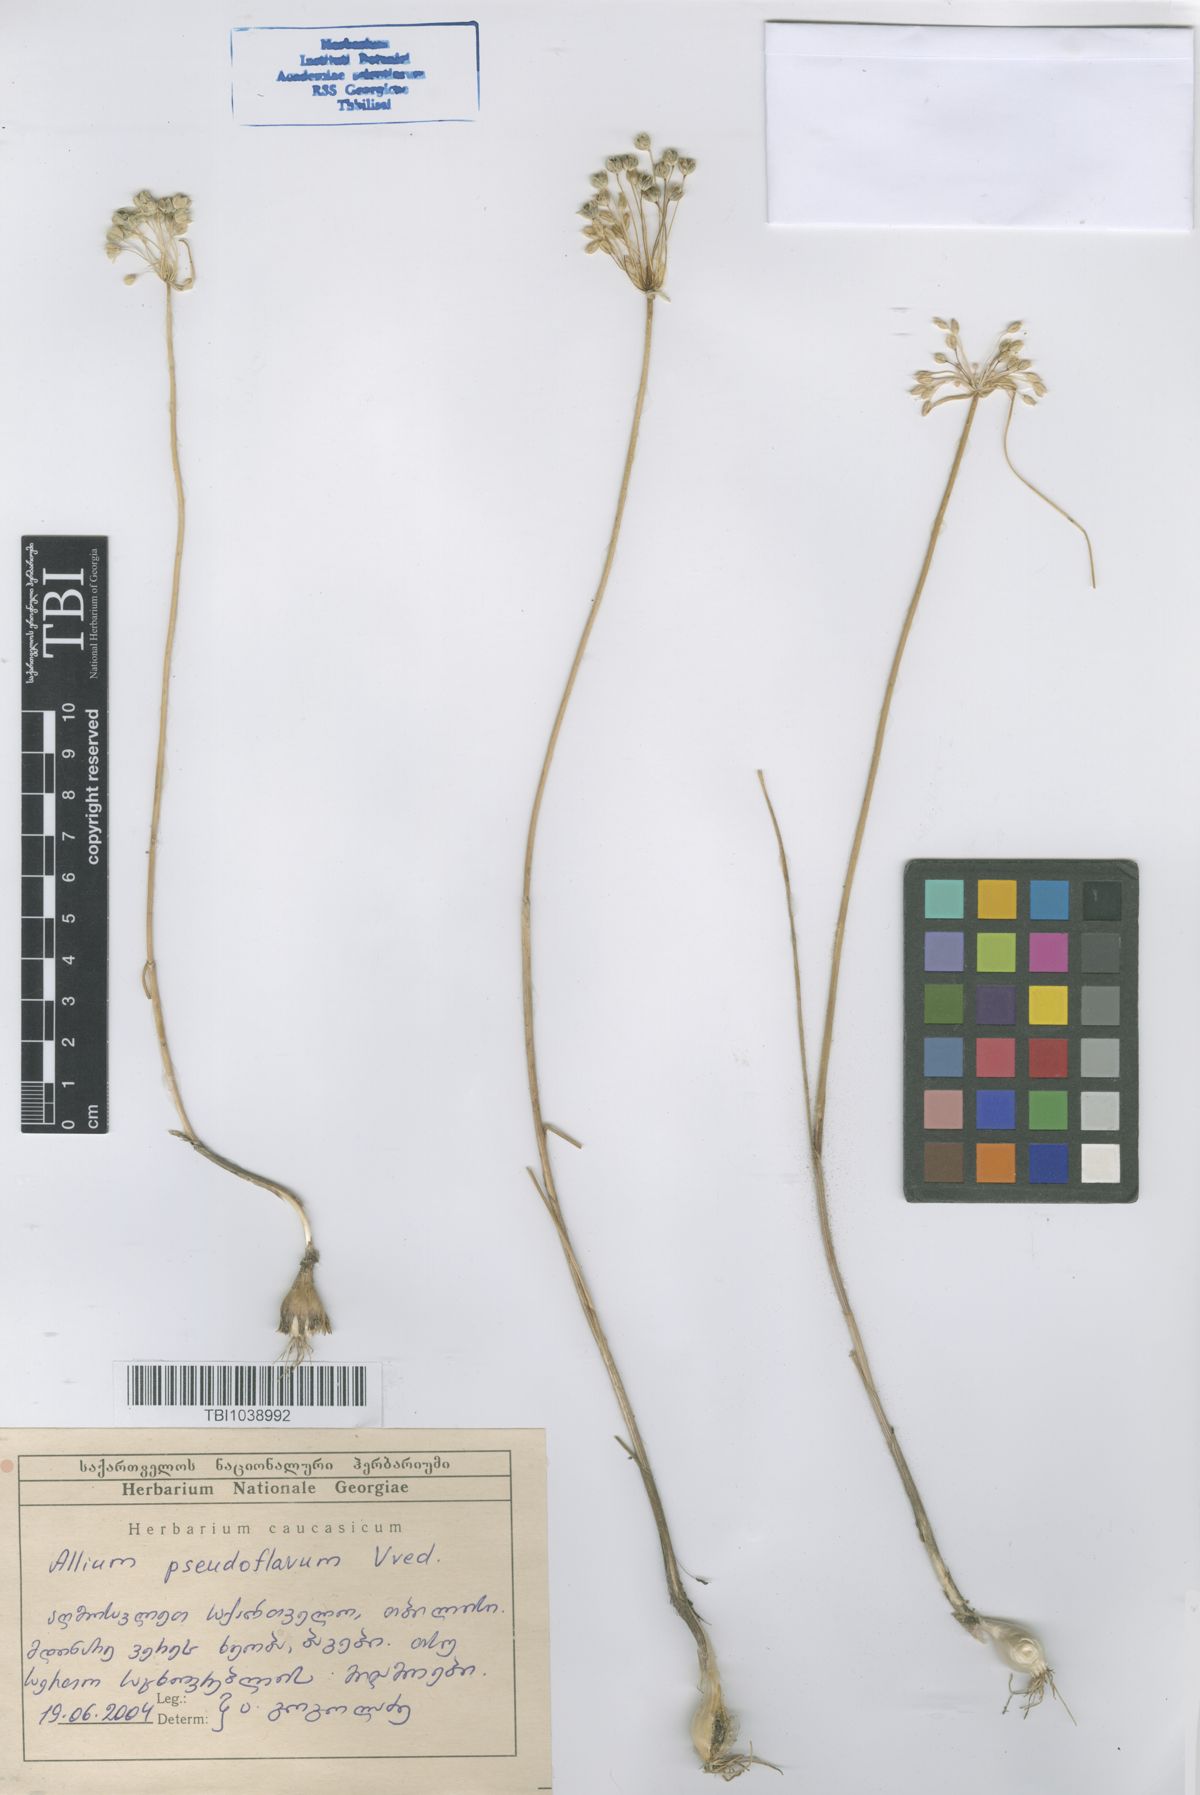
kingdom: Plantae
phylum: Tracheophyta
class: Liliopsida
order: Asparagales
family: Amaryllidaceae
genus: Allium
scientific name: Allium pseudoflavum
